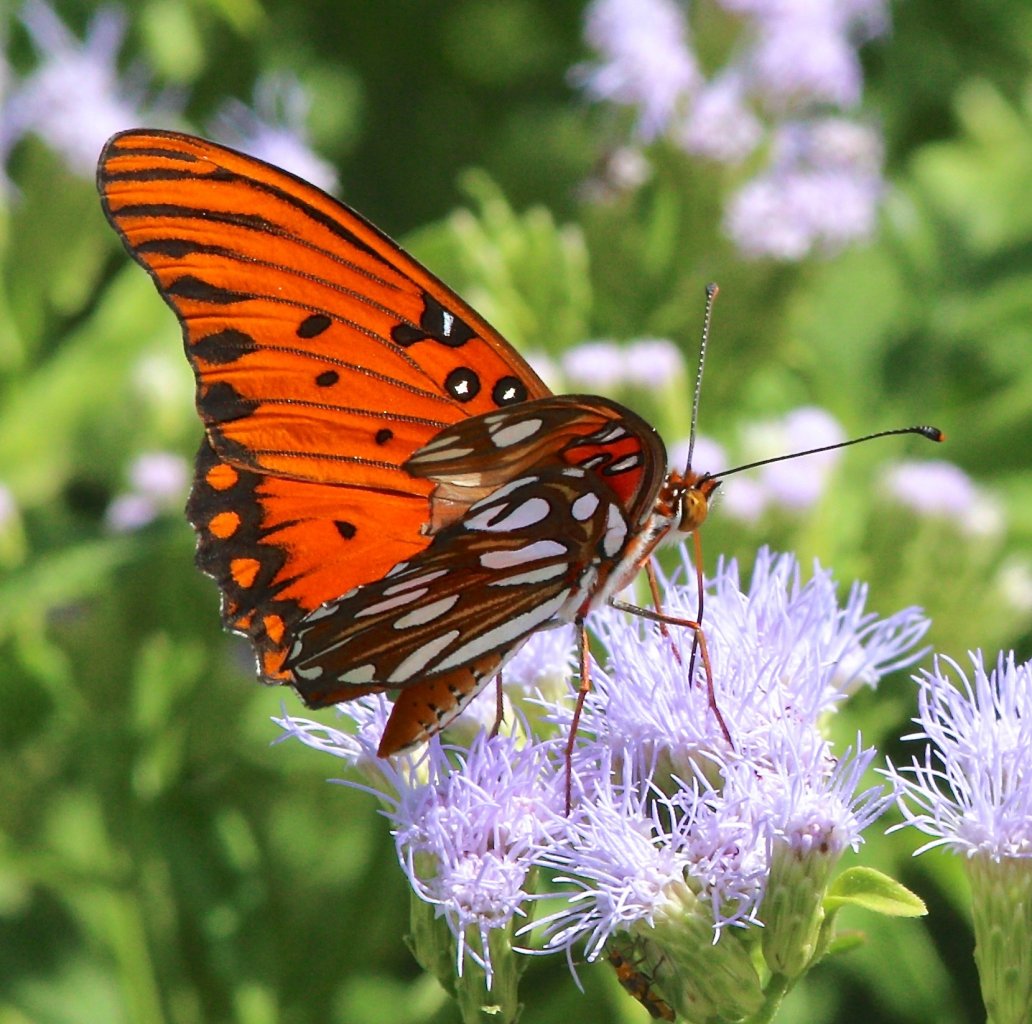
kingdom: Animalia
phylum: Arthropoda
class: Insecta
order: Lepidoptera
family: Nymphalidae
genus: Dione
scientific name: Dione vanillae
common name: Gulf Fritillary
